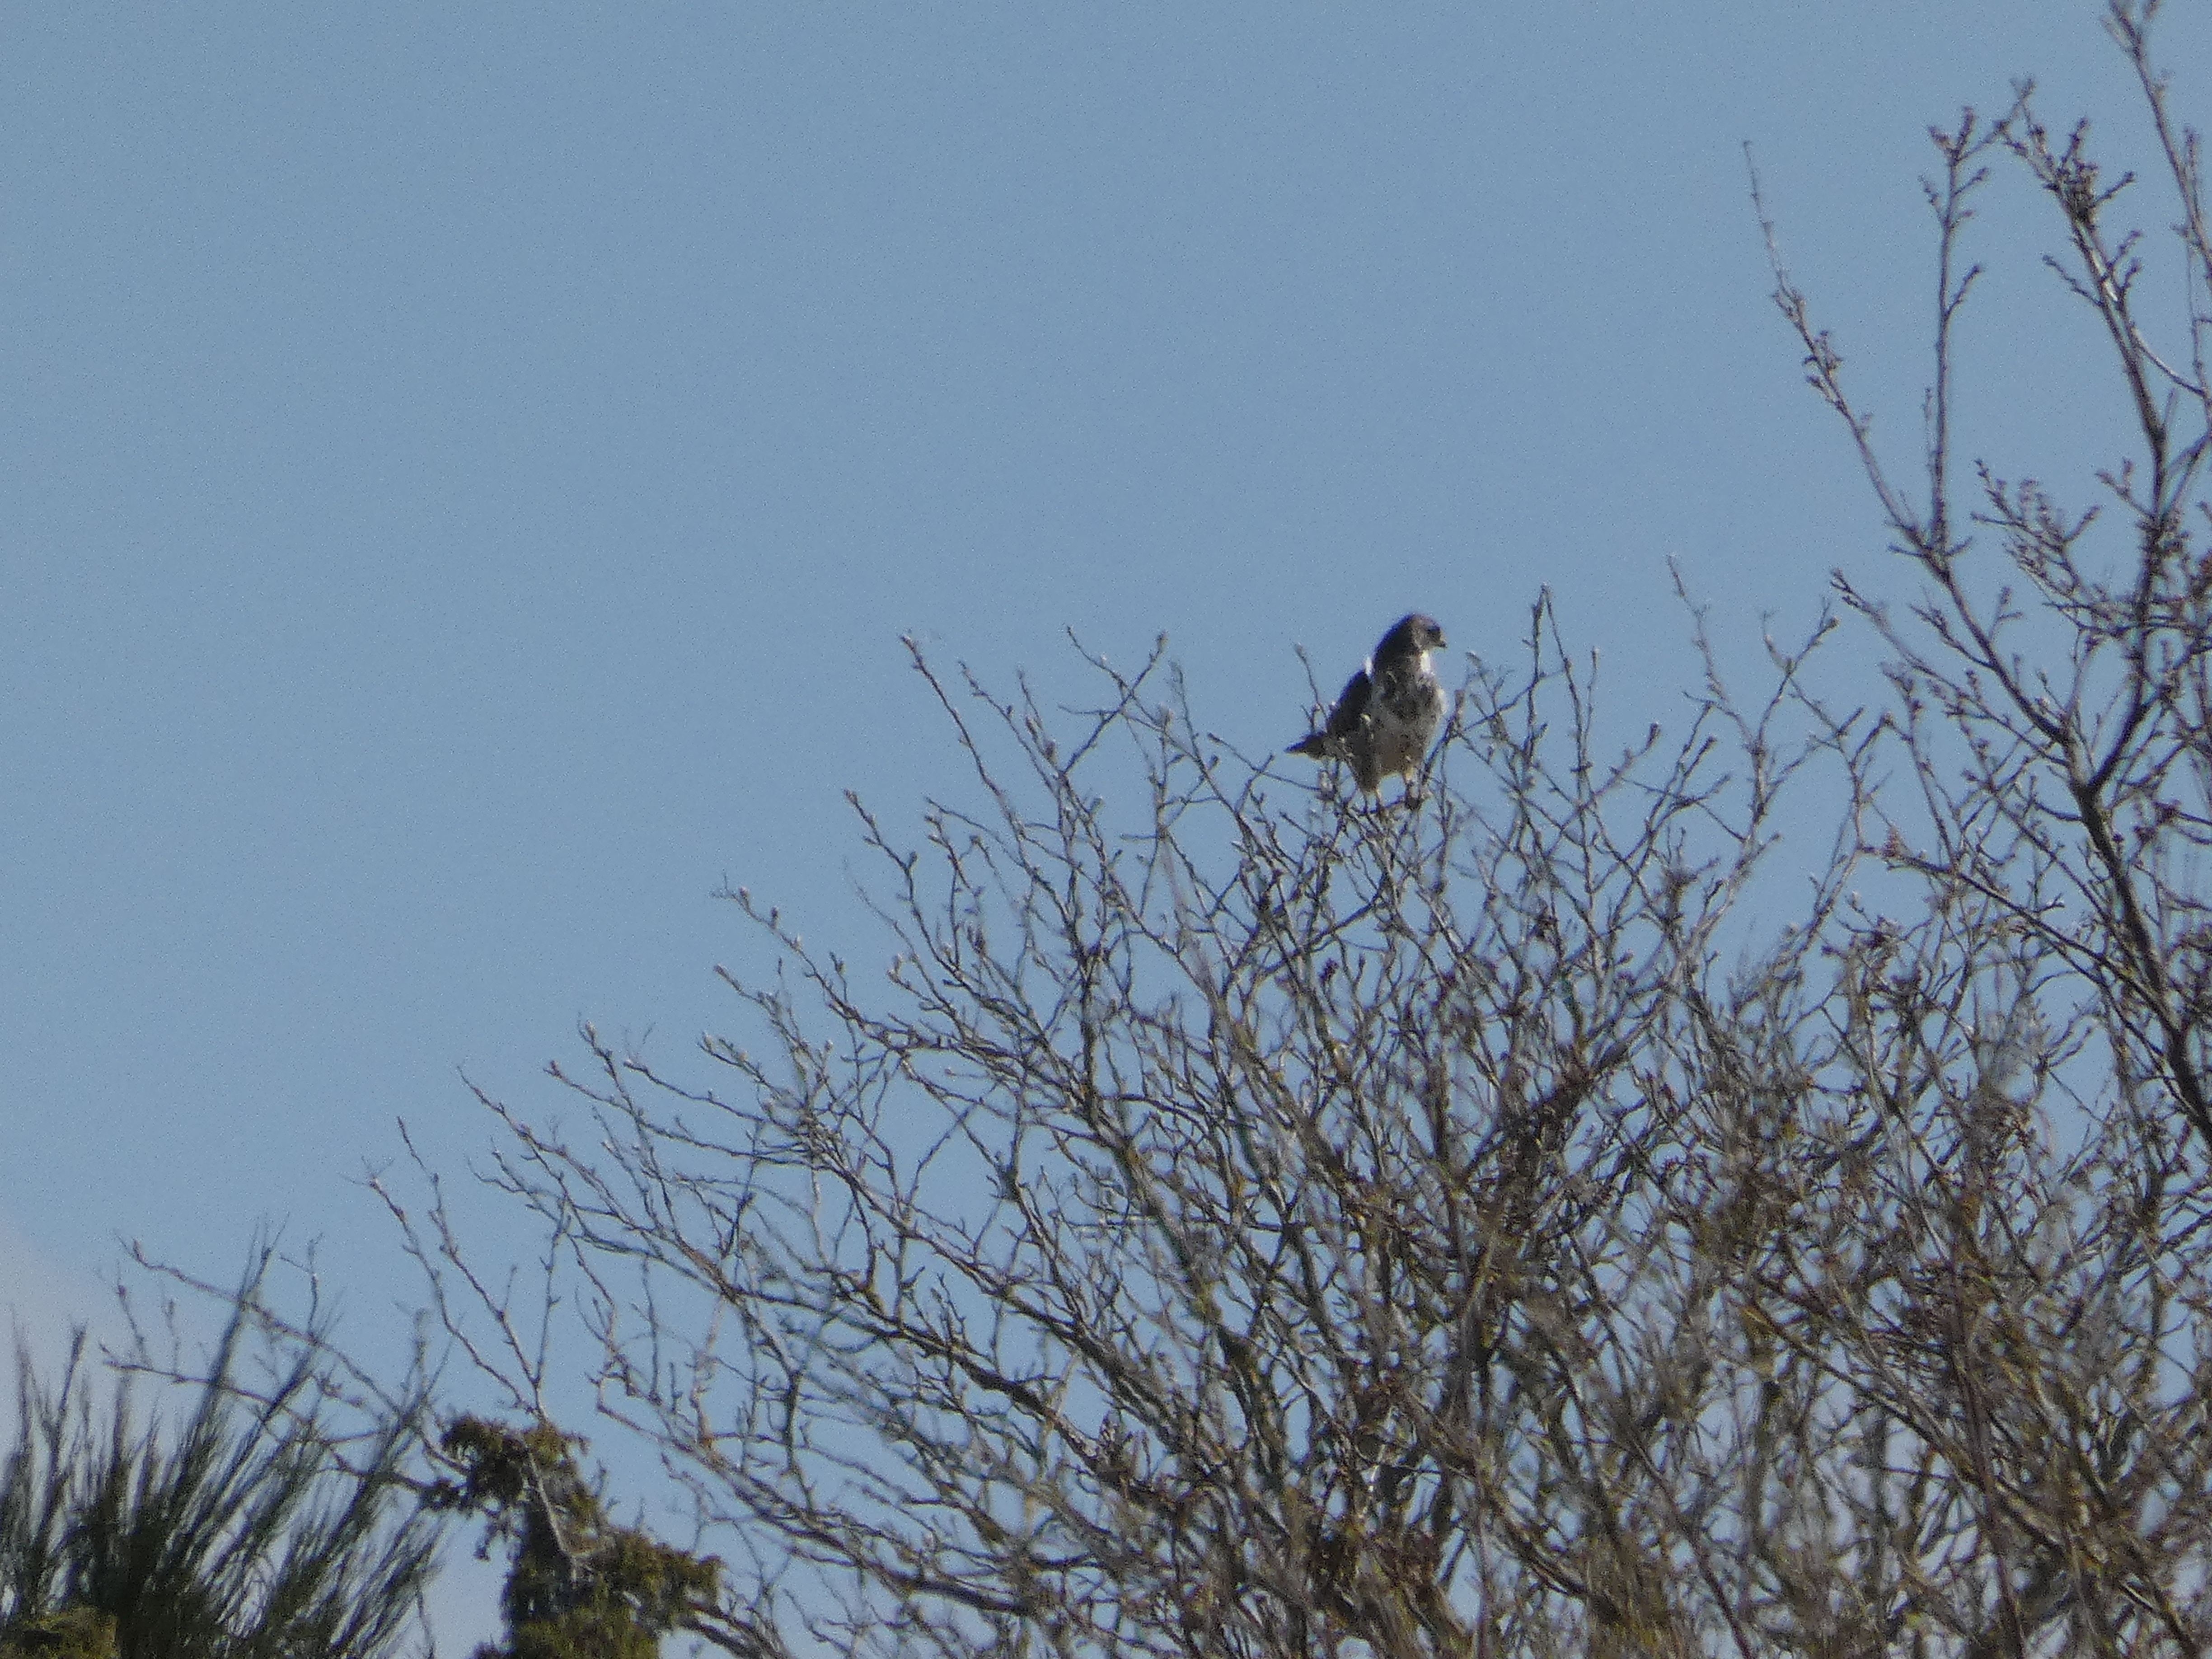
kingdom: Animalia
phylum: Chordata
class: Aves
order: Accipitriformes
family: Accipitridae
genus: Buteo
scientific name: Buteo buteo
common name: Musvåge
